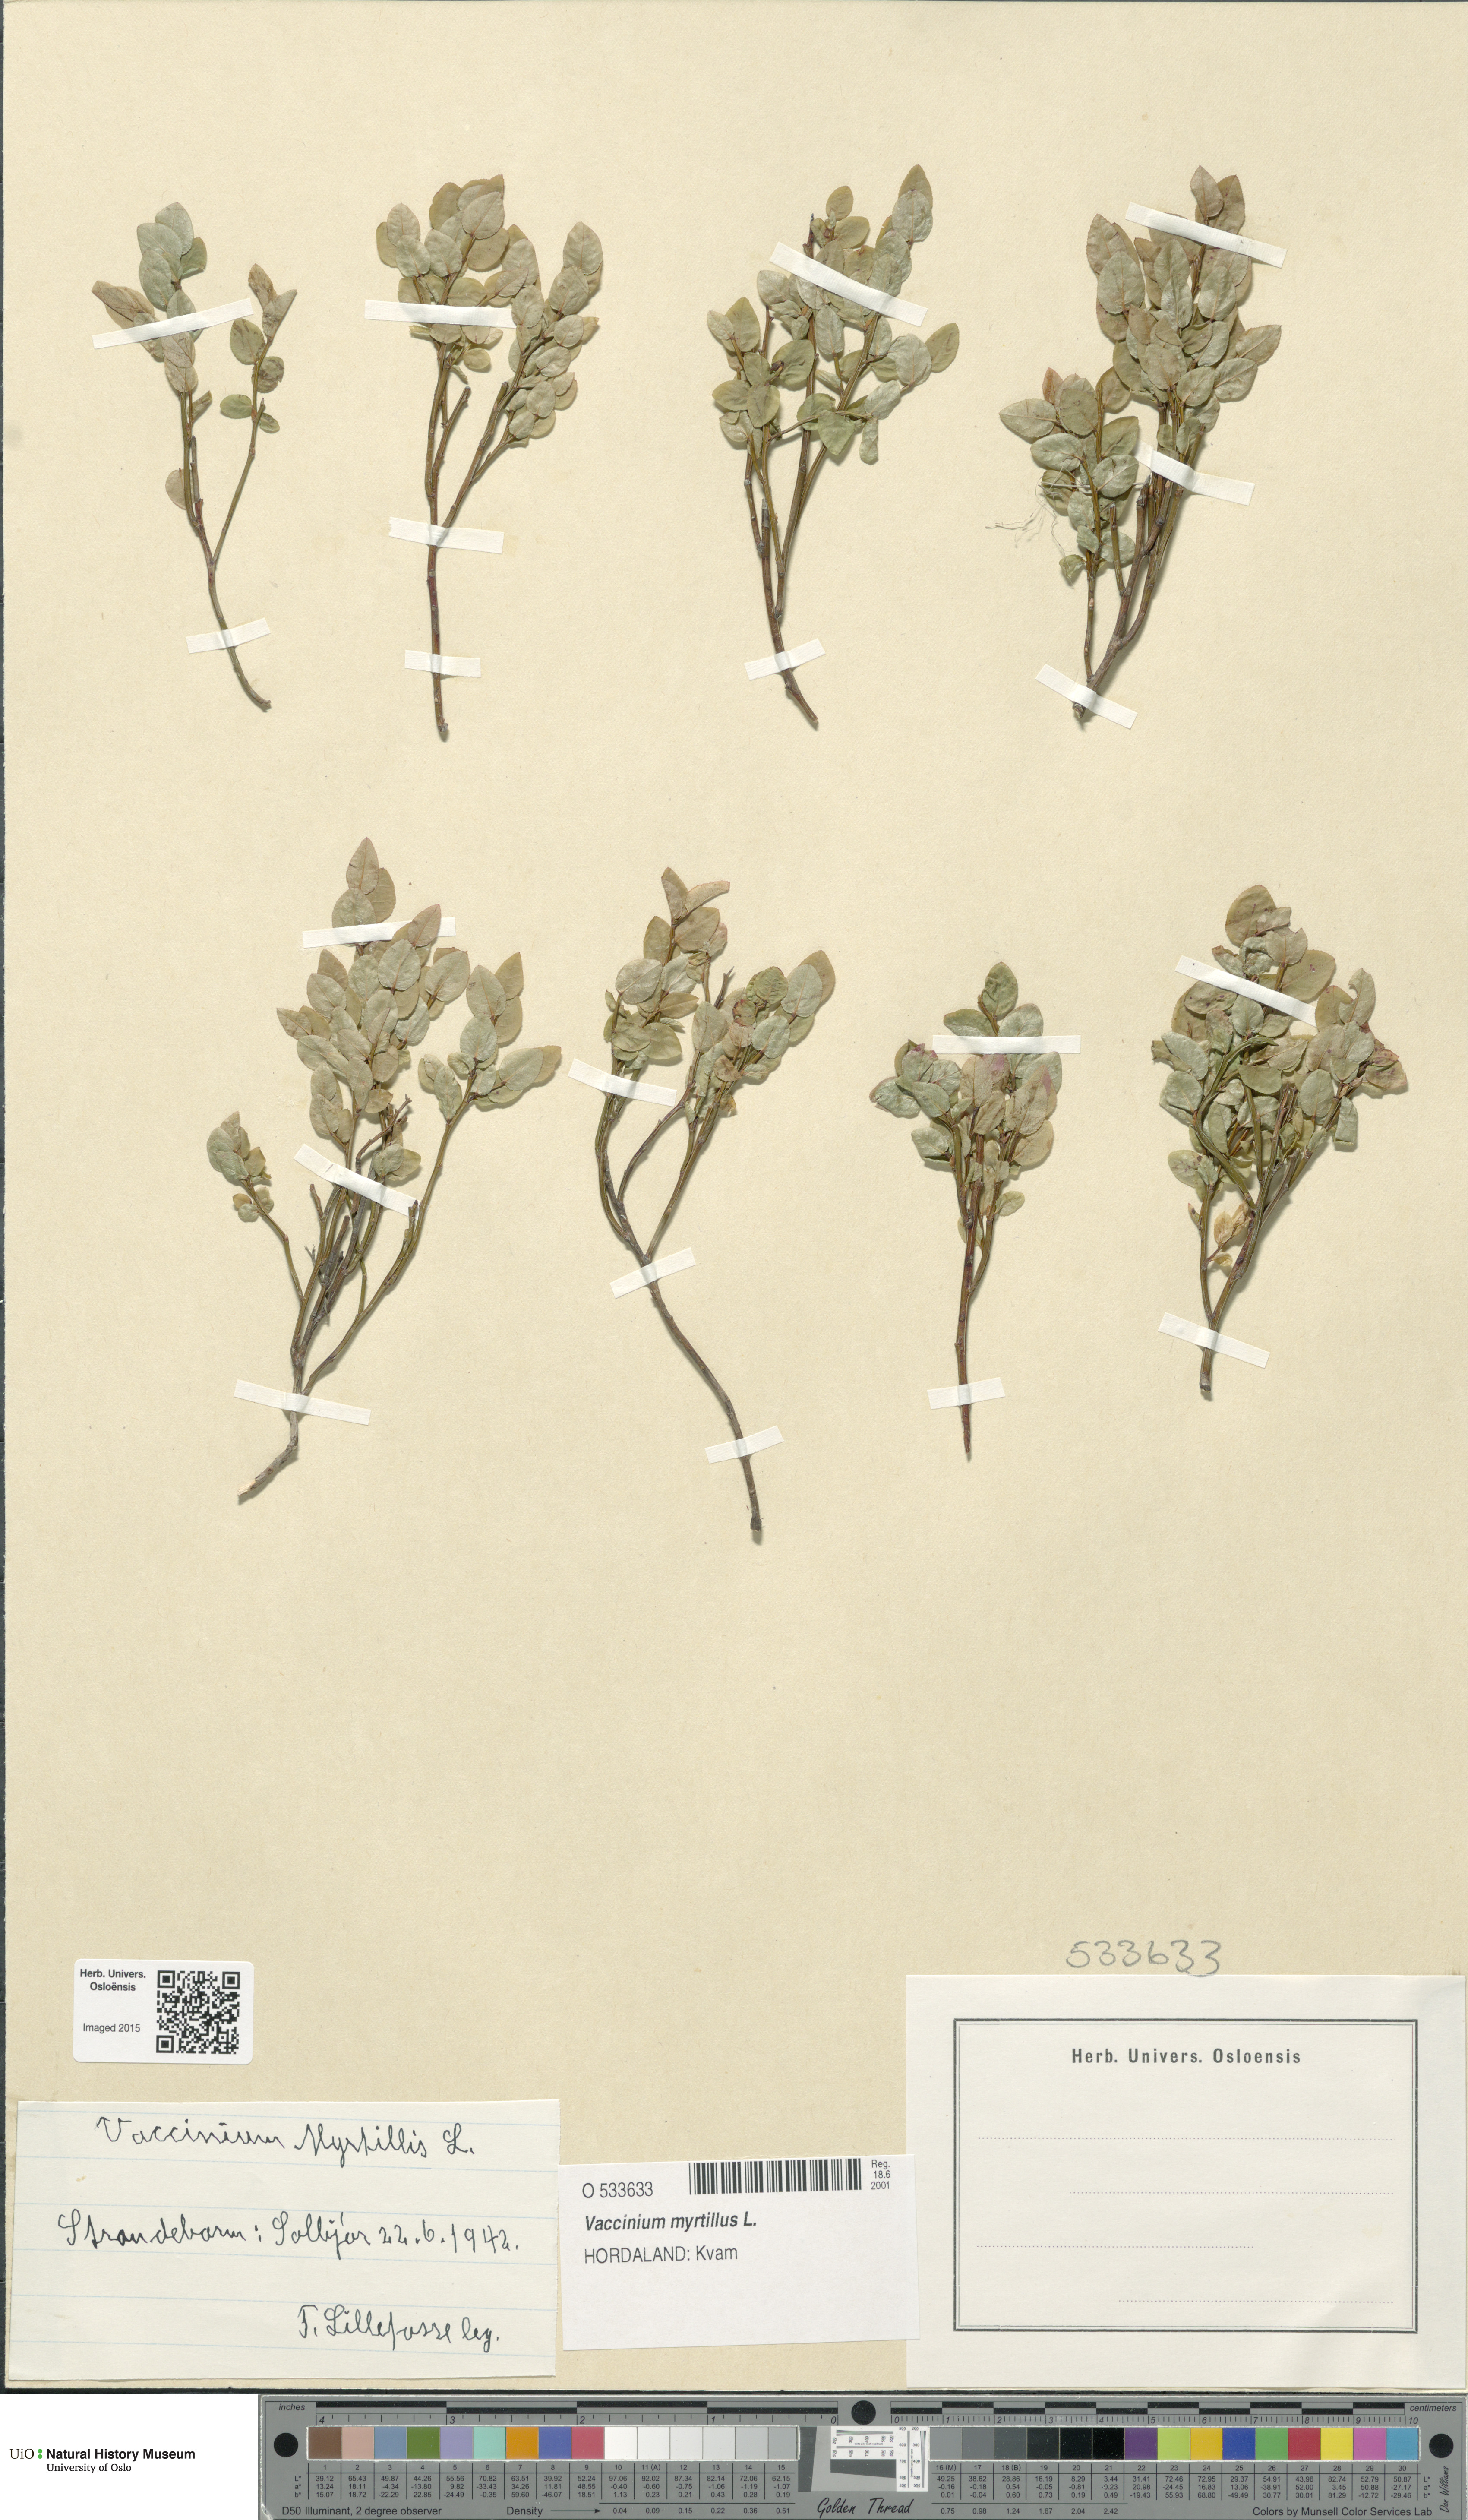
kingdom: Plantae
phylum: Tracheophyta
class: Magnoliopsida
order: Ericales
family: Ericaceae
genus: Vaccinium
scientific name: Vaccinium myrtillus
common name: Bilberry
